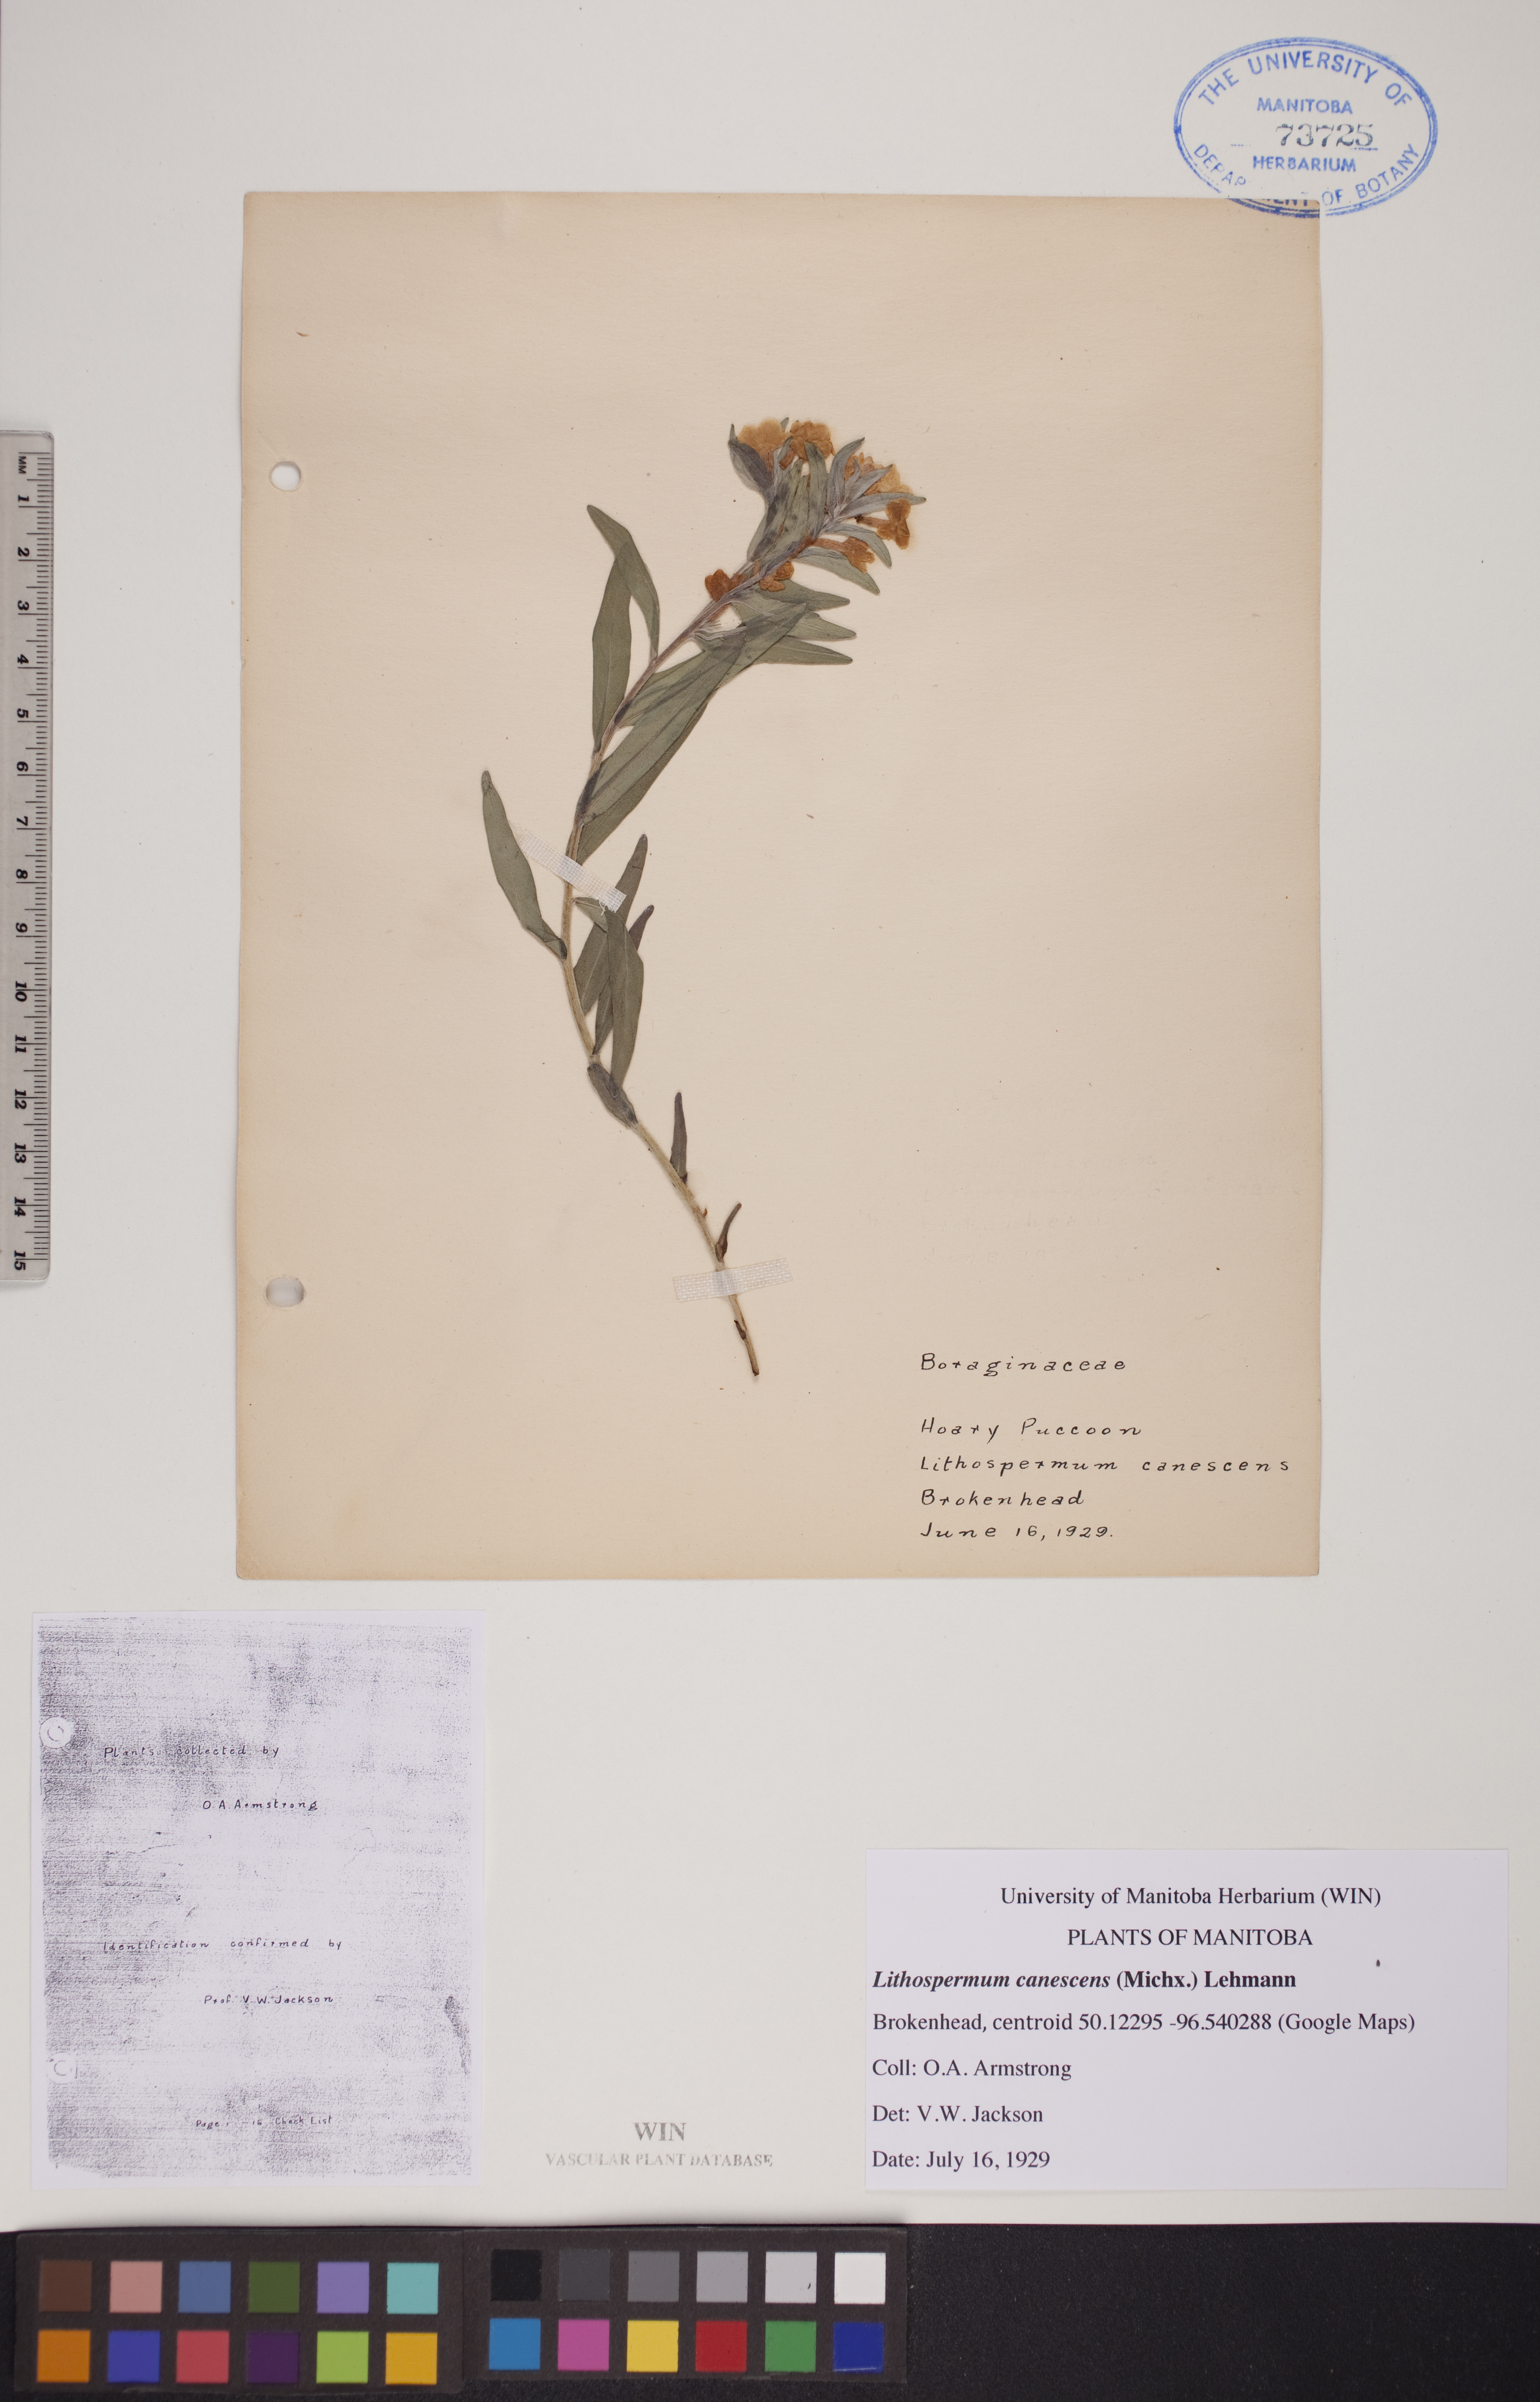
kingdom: Plantae
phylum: Tracheophyta
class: Magnoliopsida
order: Boraginales
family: Boraginaceae
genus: Lithospermum
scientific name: Lithospermum canescens
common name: Hoary puccoon
